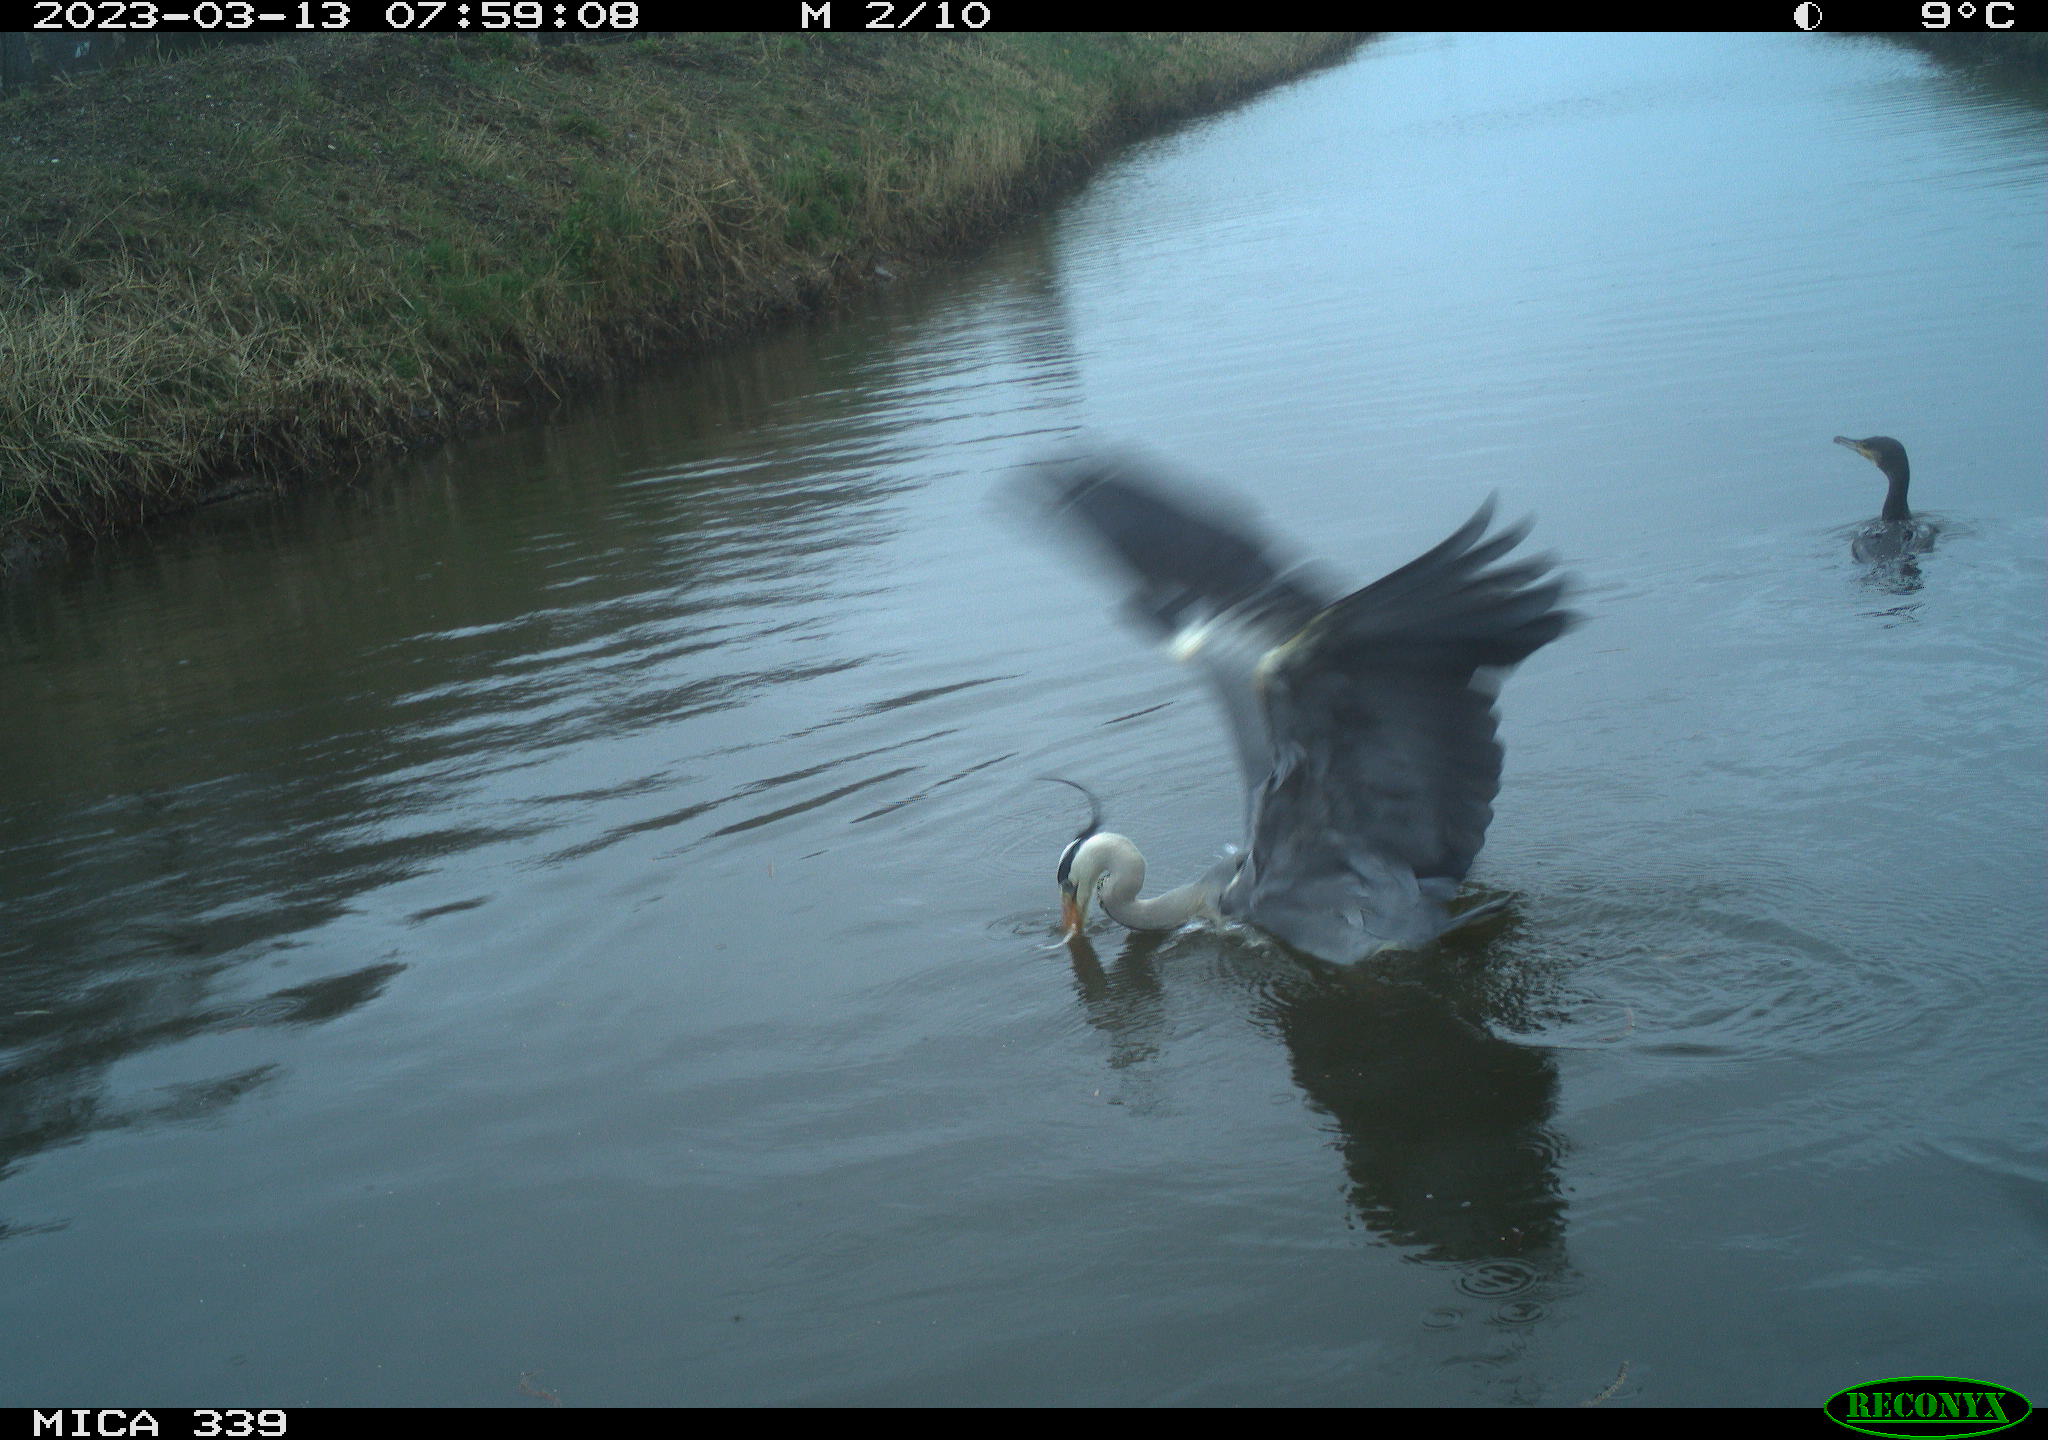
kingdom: Animalia
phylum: Chordata
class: Aves
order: Suliformes
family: Phalacrocoracidae
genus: Phalacrocorax
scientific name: Phalacrocorax carbo
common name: Great cormorant
